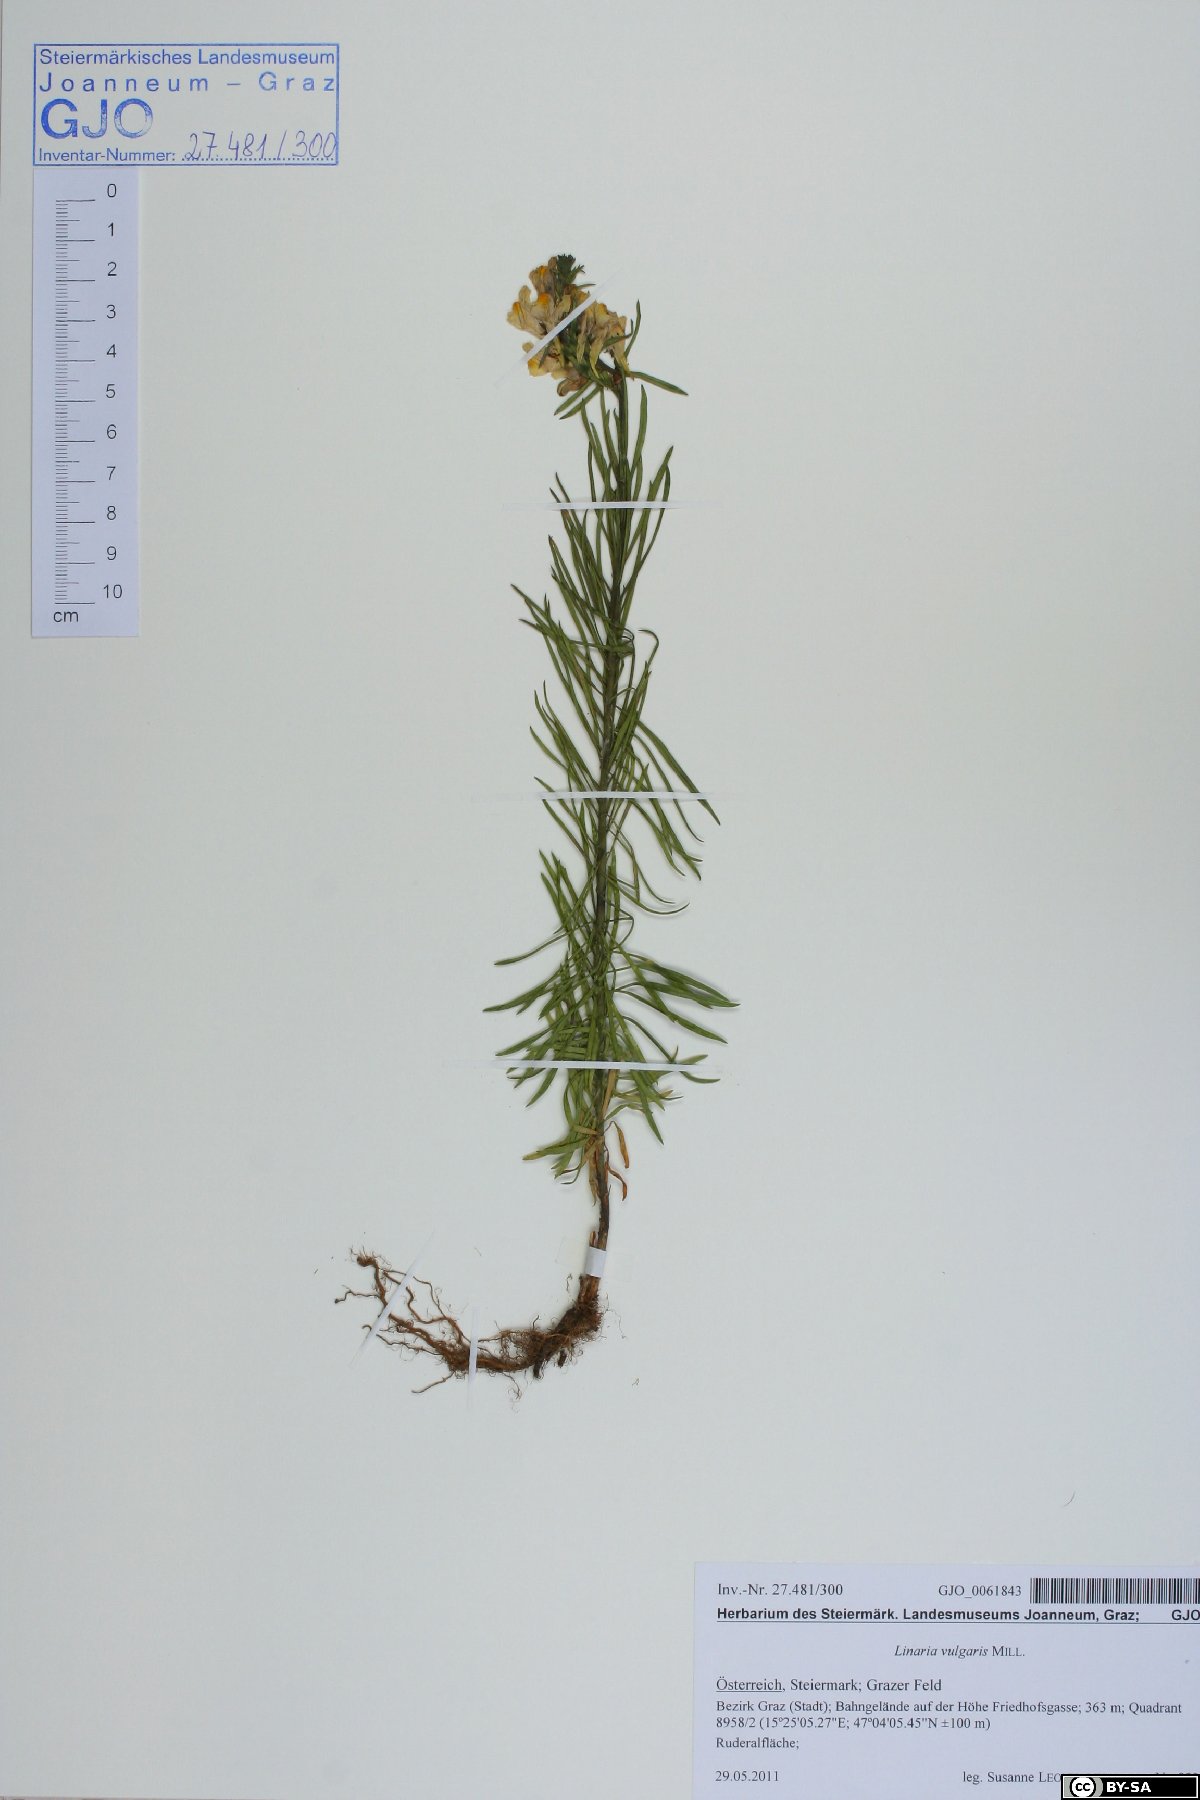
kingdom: Plantae
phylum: Tracheophyta
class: Magnoliopsida
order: Lamiales
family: Plantaginaceae
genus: Linaria
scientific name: Linaria vulgaris
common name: Butter and eggs
